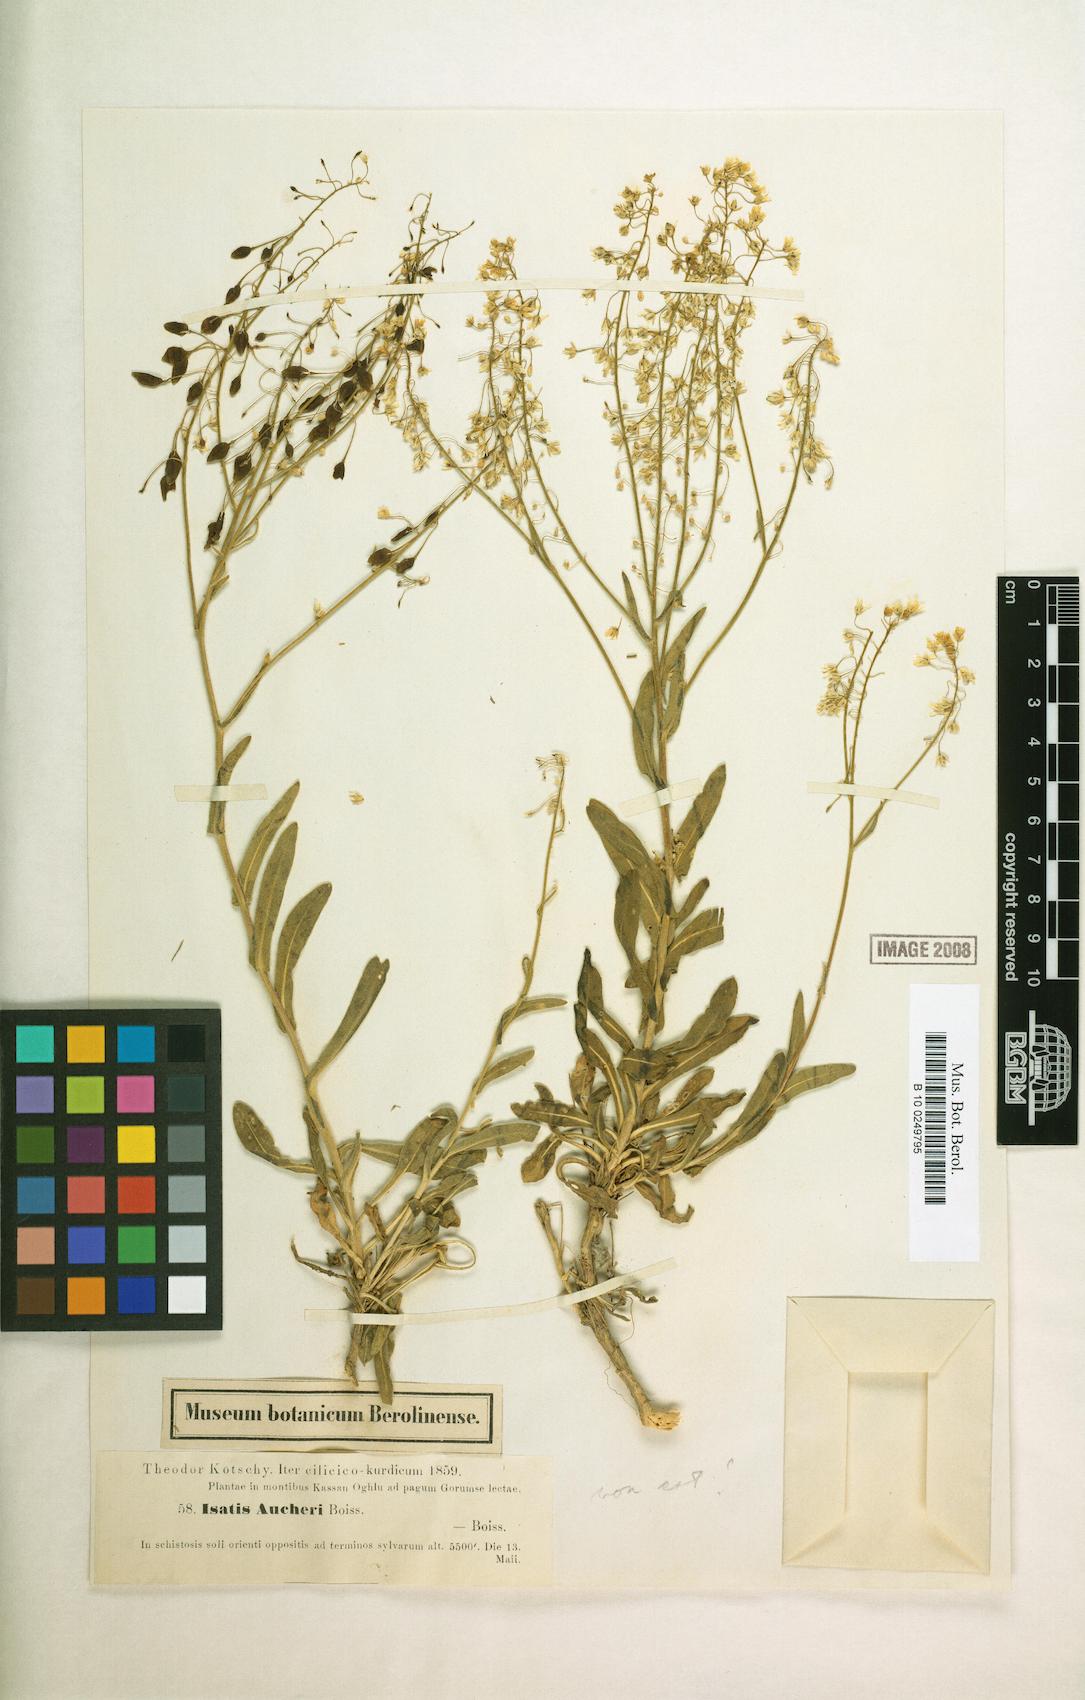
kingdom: Plantae
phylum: Tracheophyta
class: Magnoliopsida
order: Brassicales
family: Brassicaceae
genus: Isatis
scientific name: Isatis aucheri
